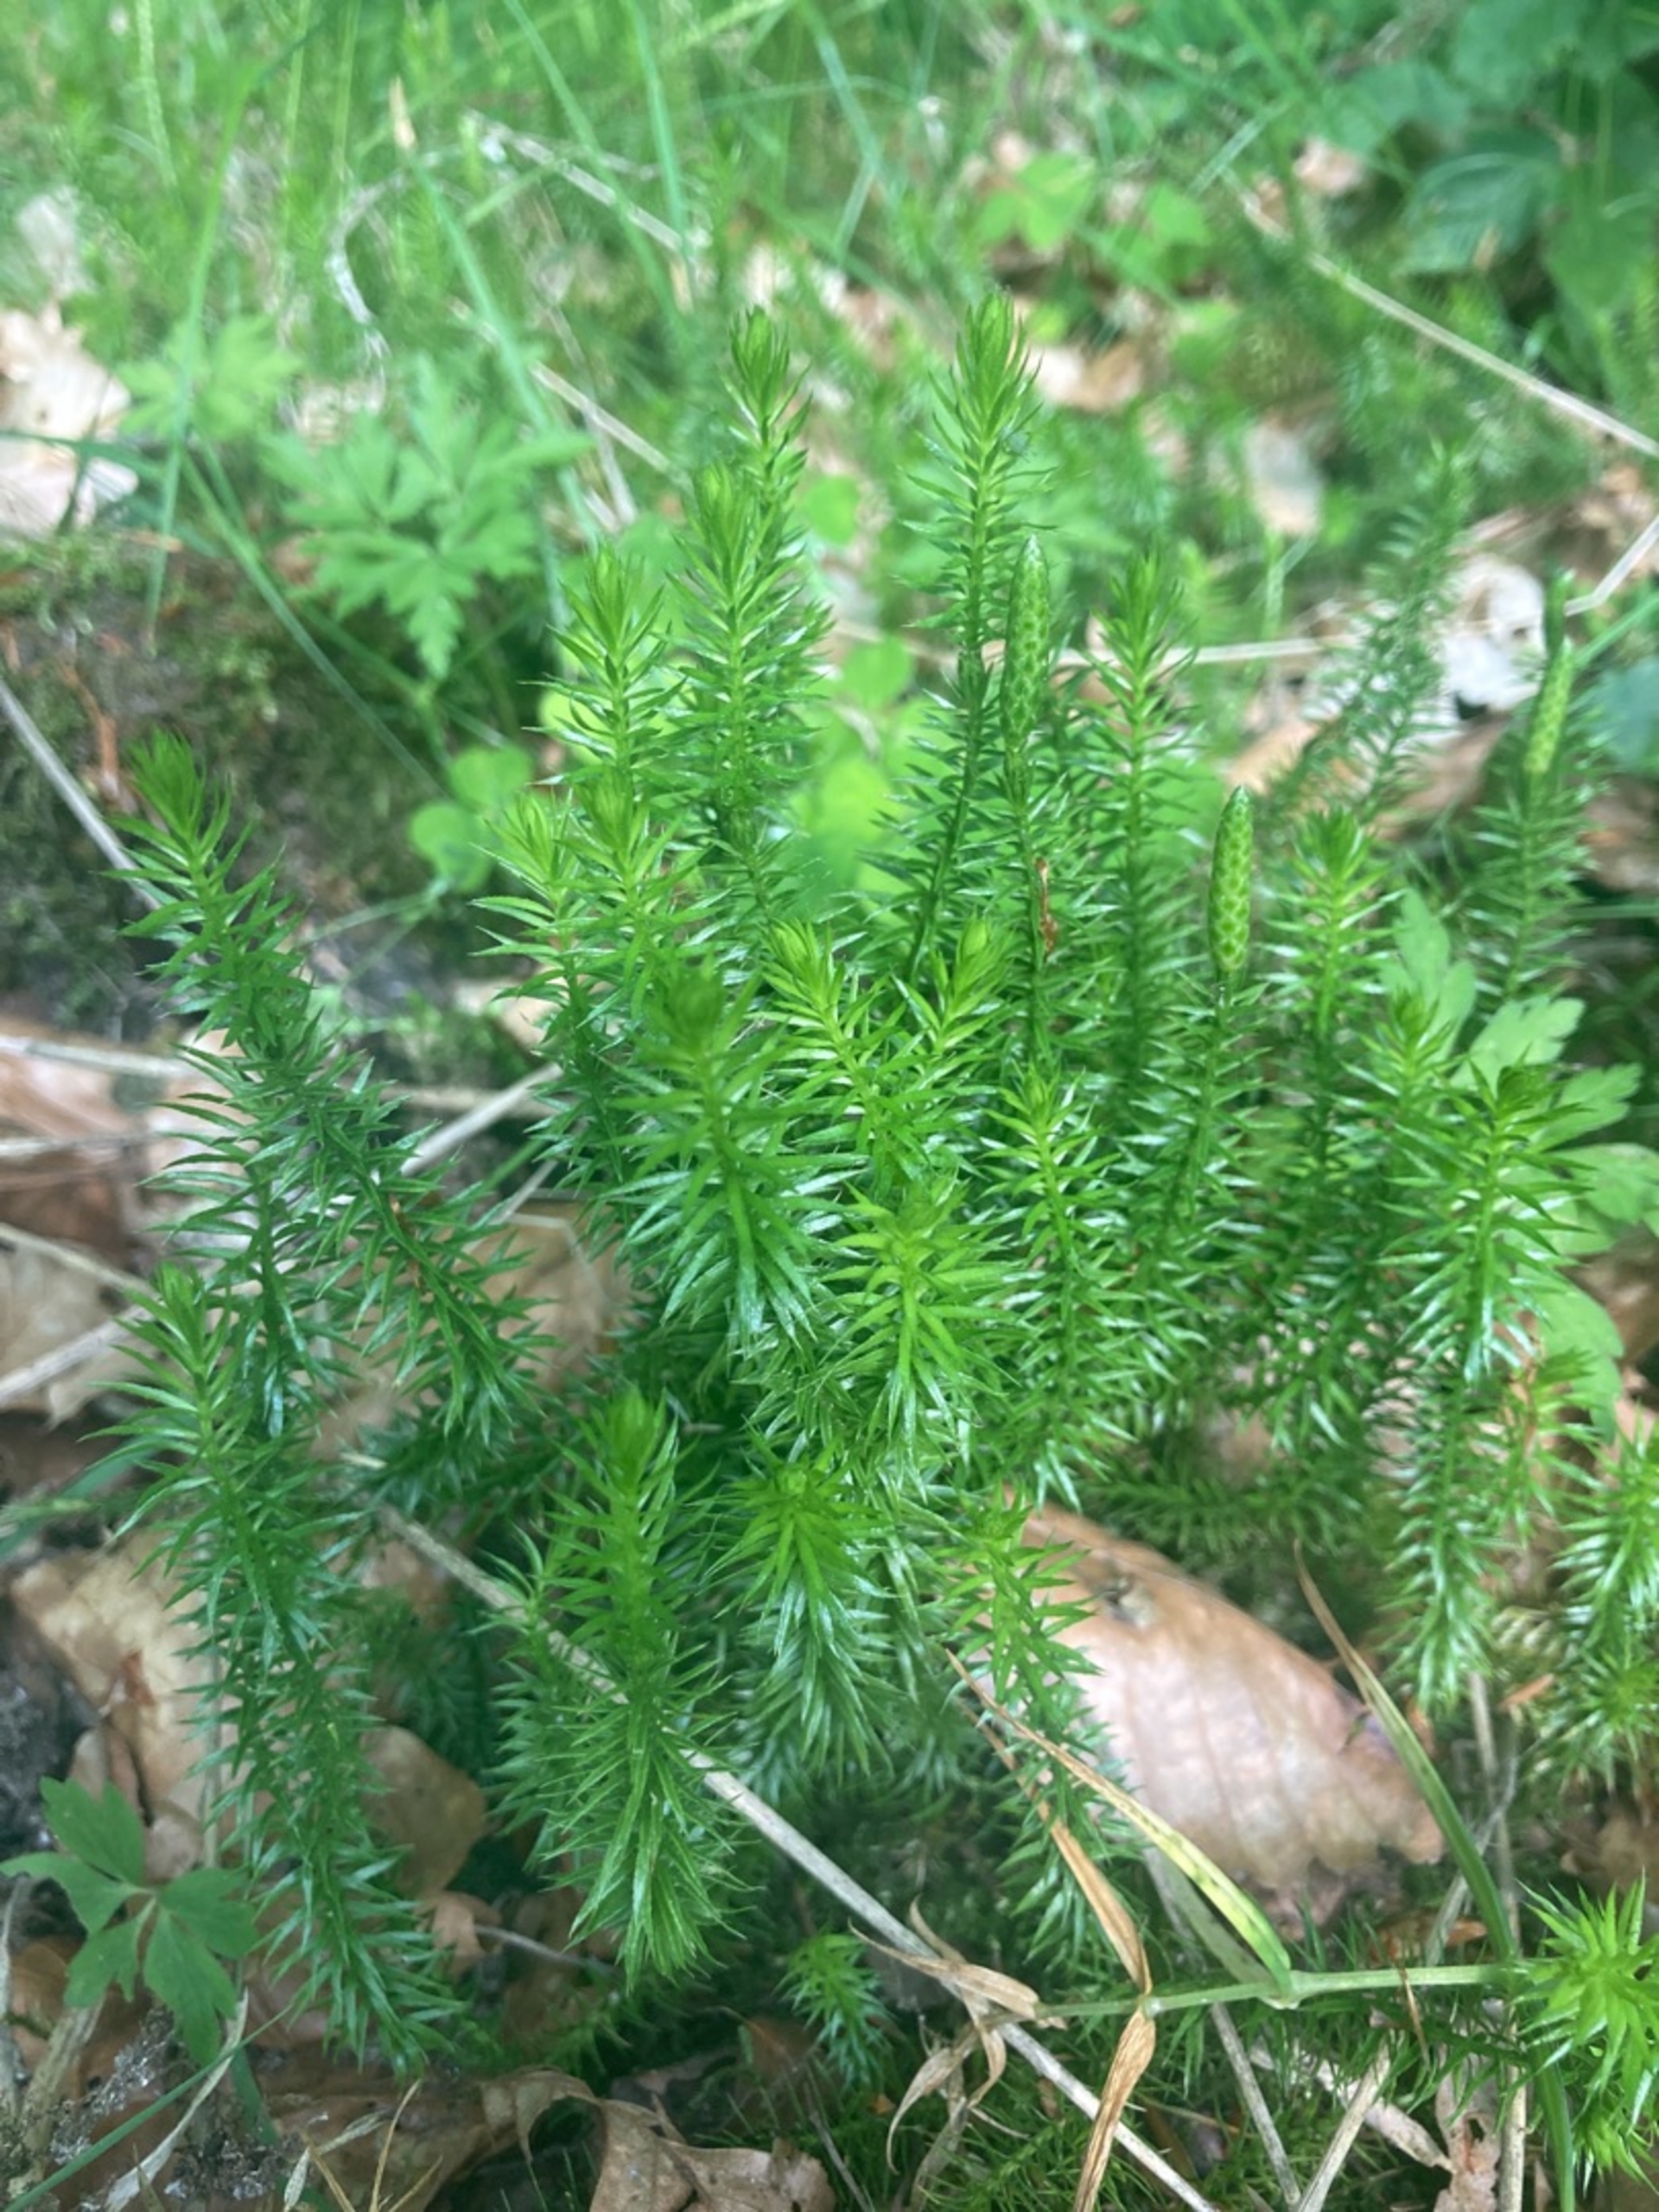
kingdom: Plantae
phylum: Tracheophyta
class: Lycopodiopsida
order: Lycopodiales
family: Lycopodiaceae
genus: Spinulum
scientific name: Spinulum annotinum
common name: Femradet ulvefod
